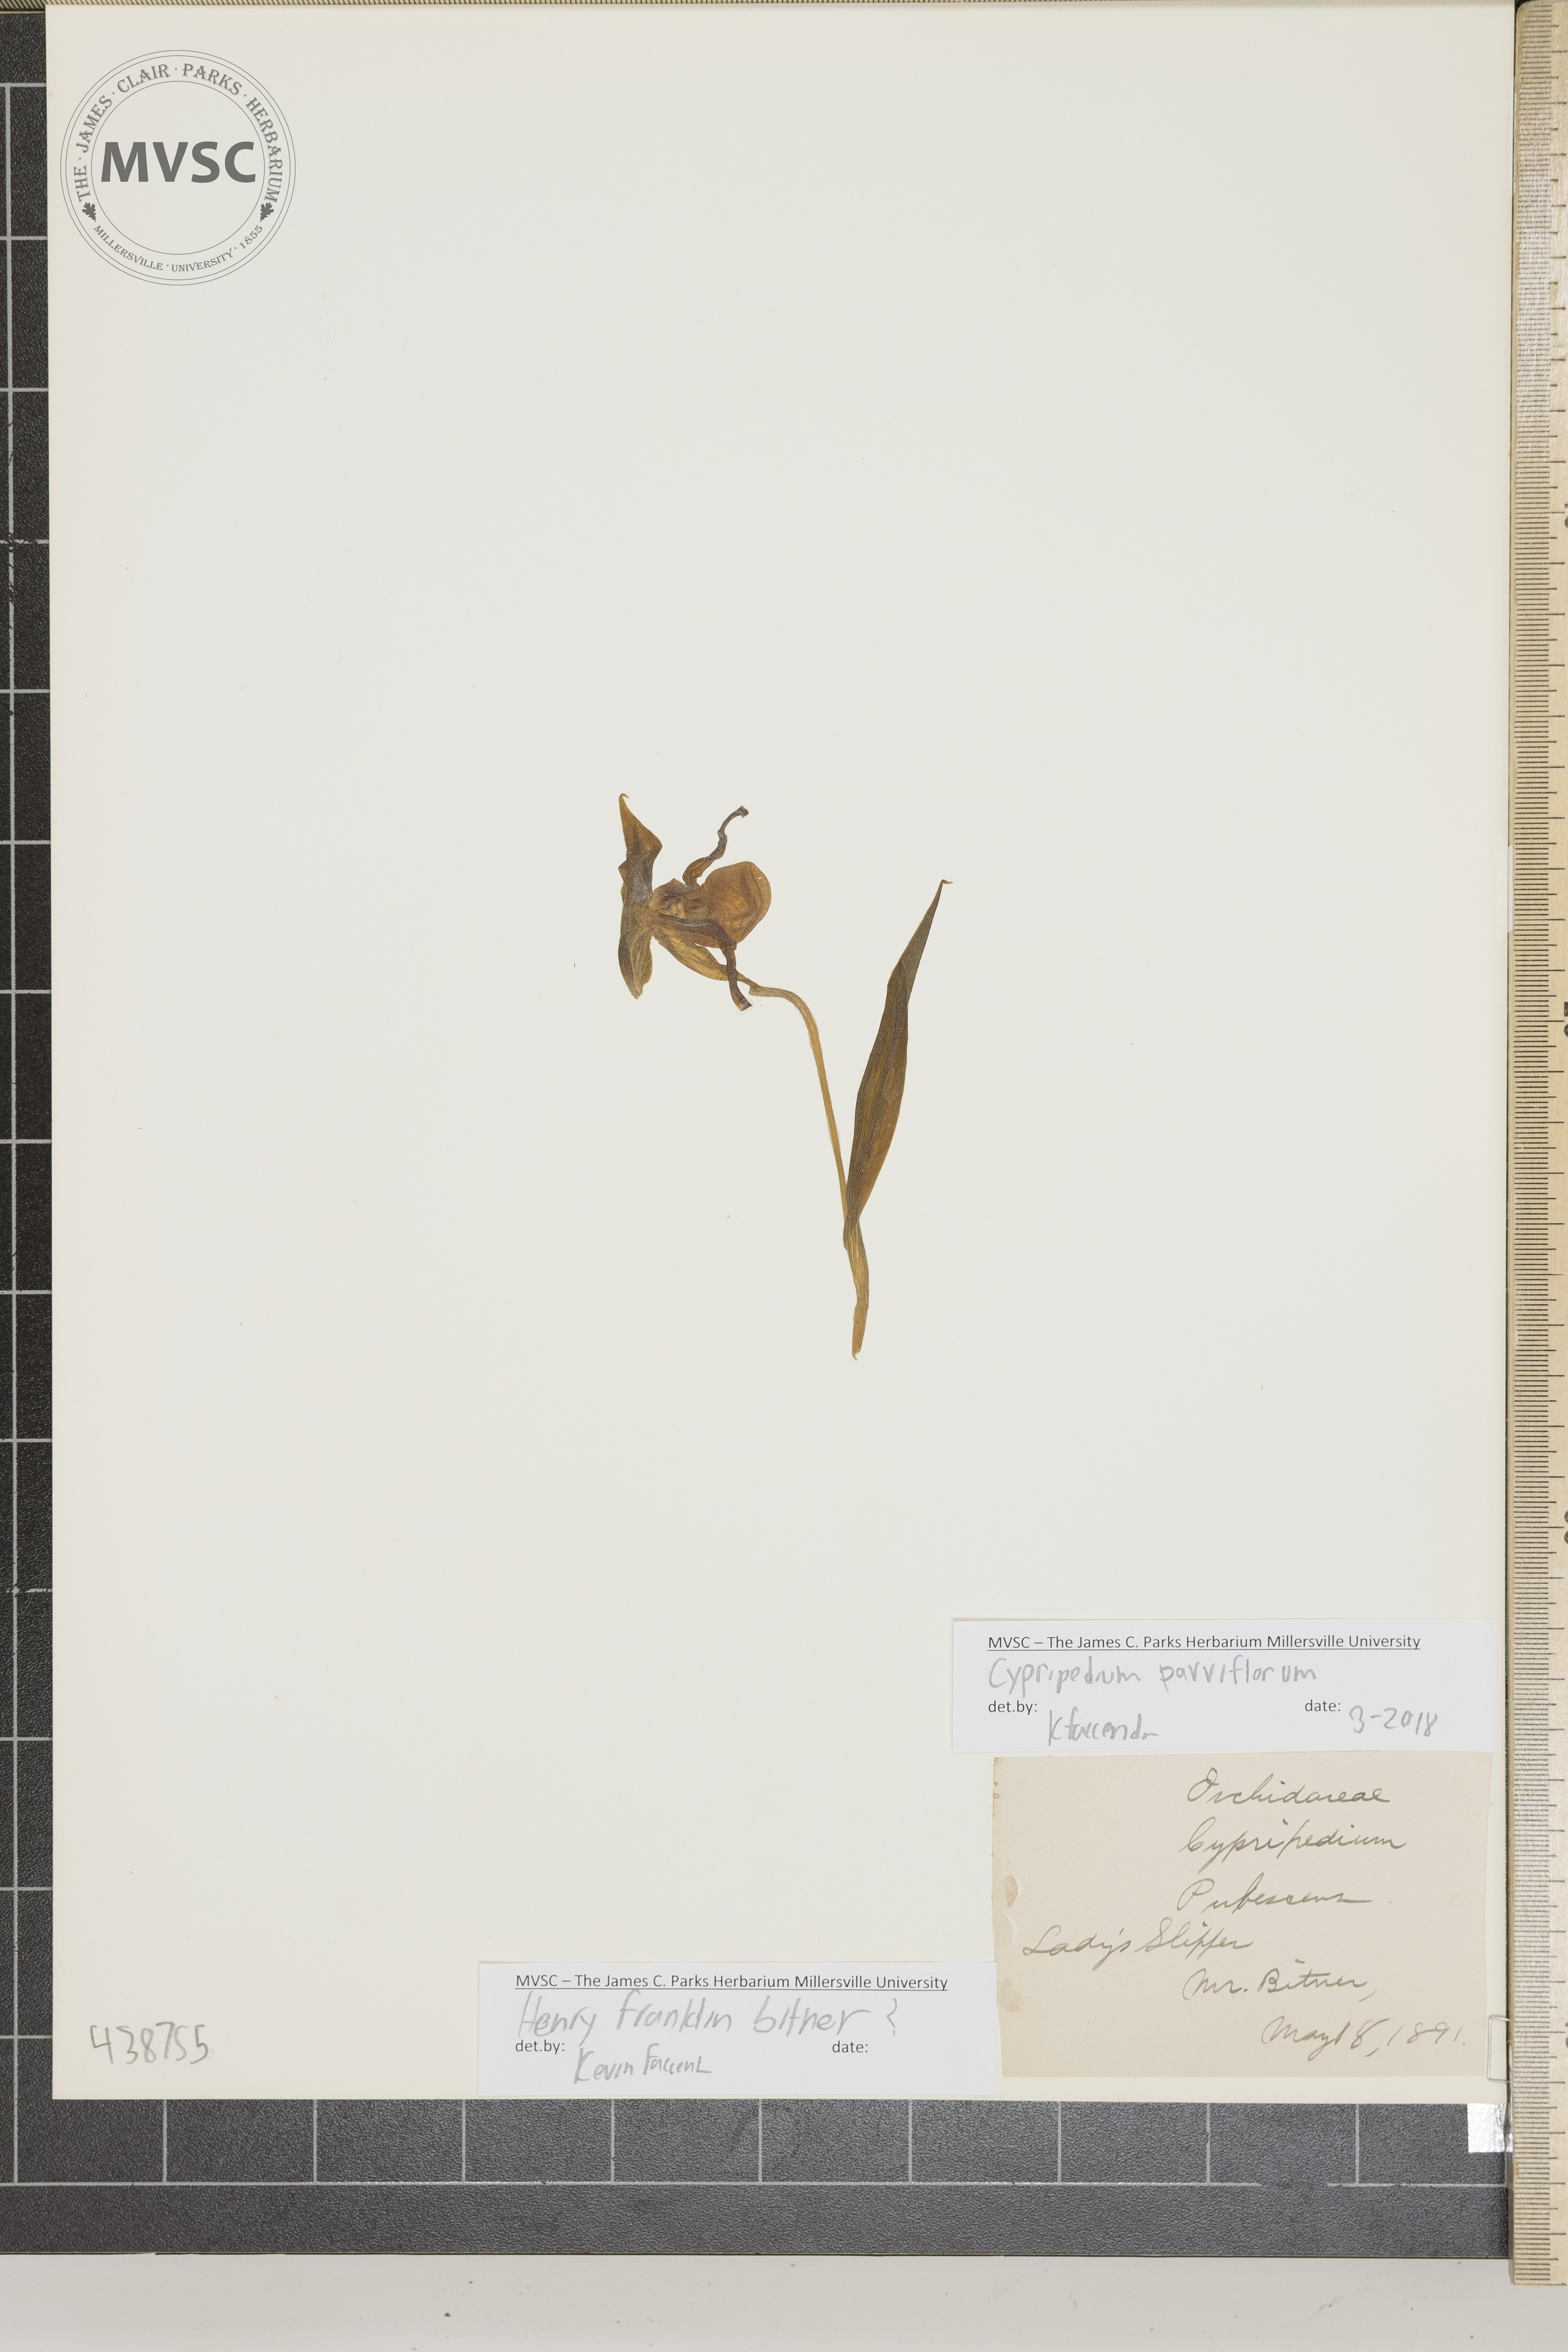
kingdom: Plantae
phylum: Tracheophyta
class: Liliopsida
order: Asparagales
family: Orchidaceae
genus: Cypripedium
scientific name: Cypripedium parviflorum
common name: Lady's slipper
